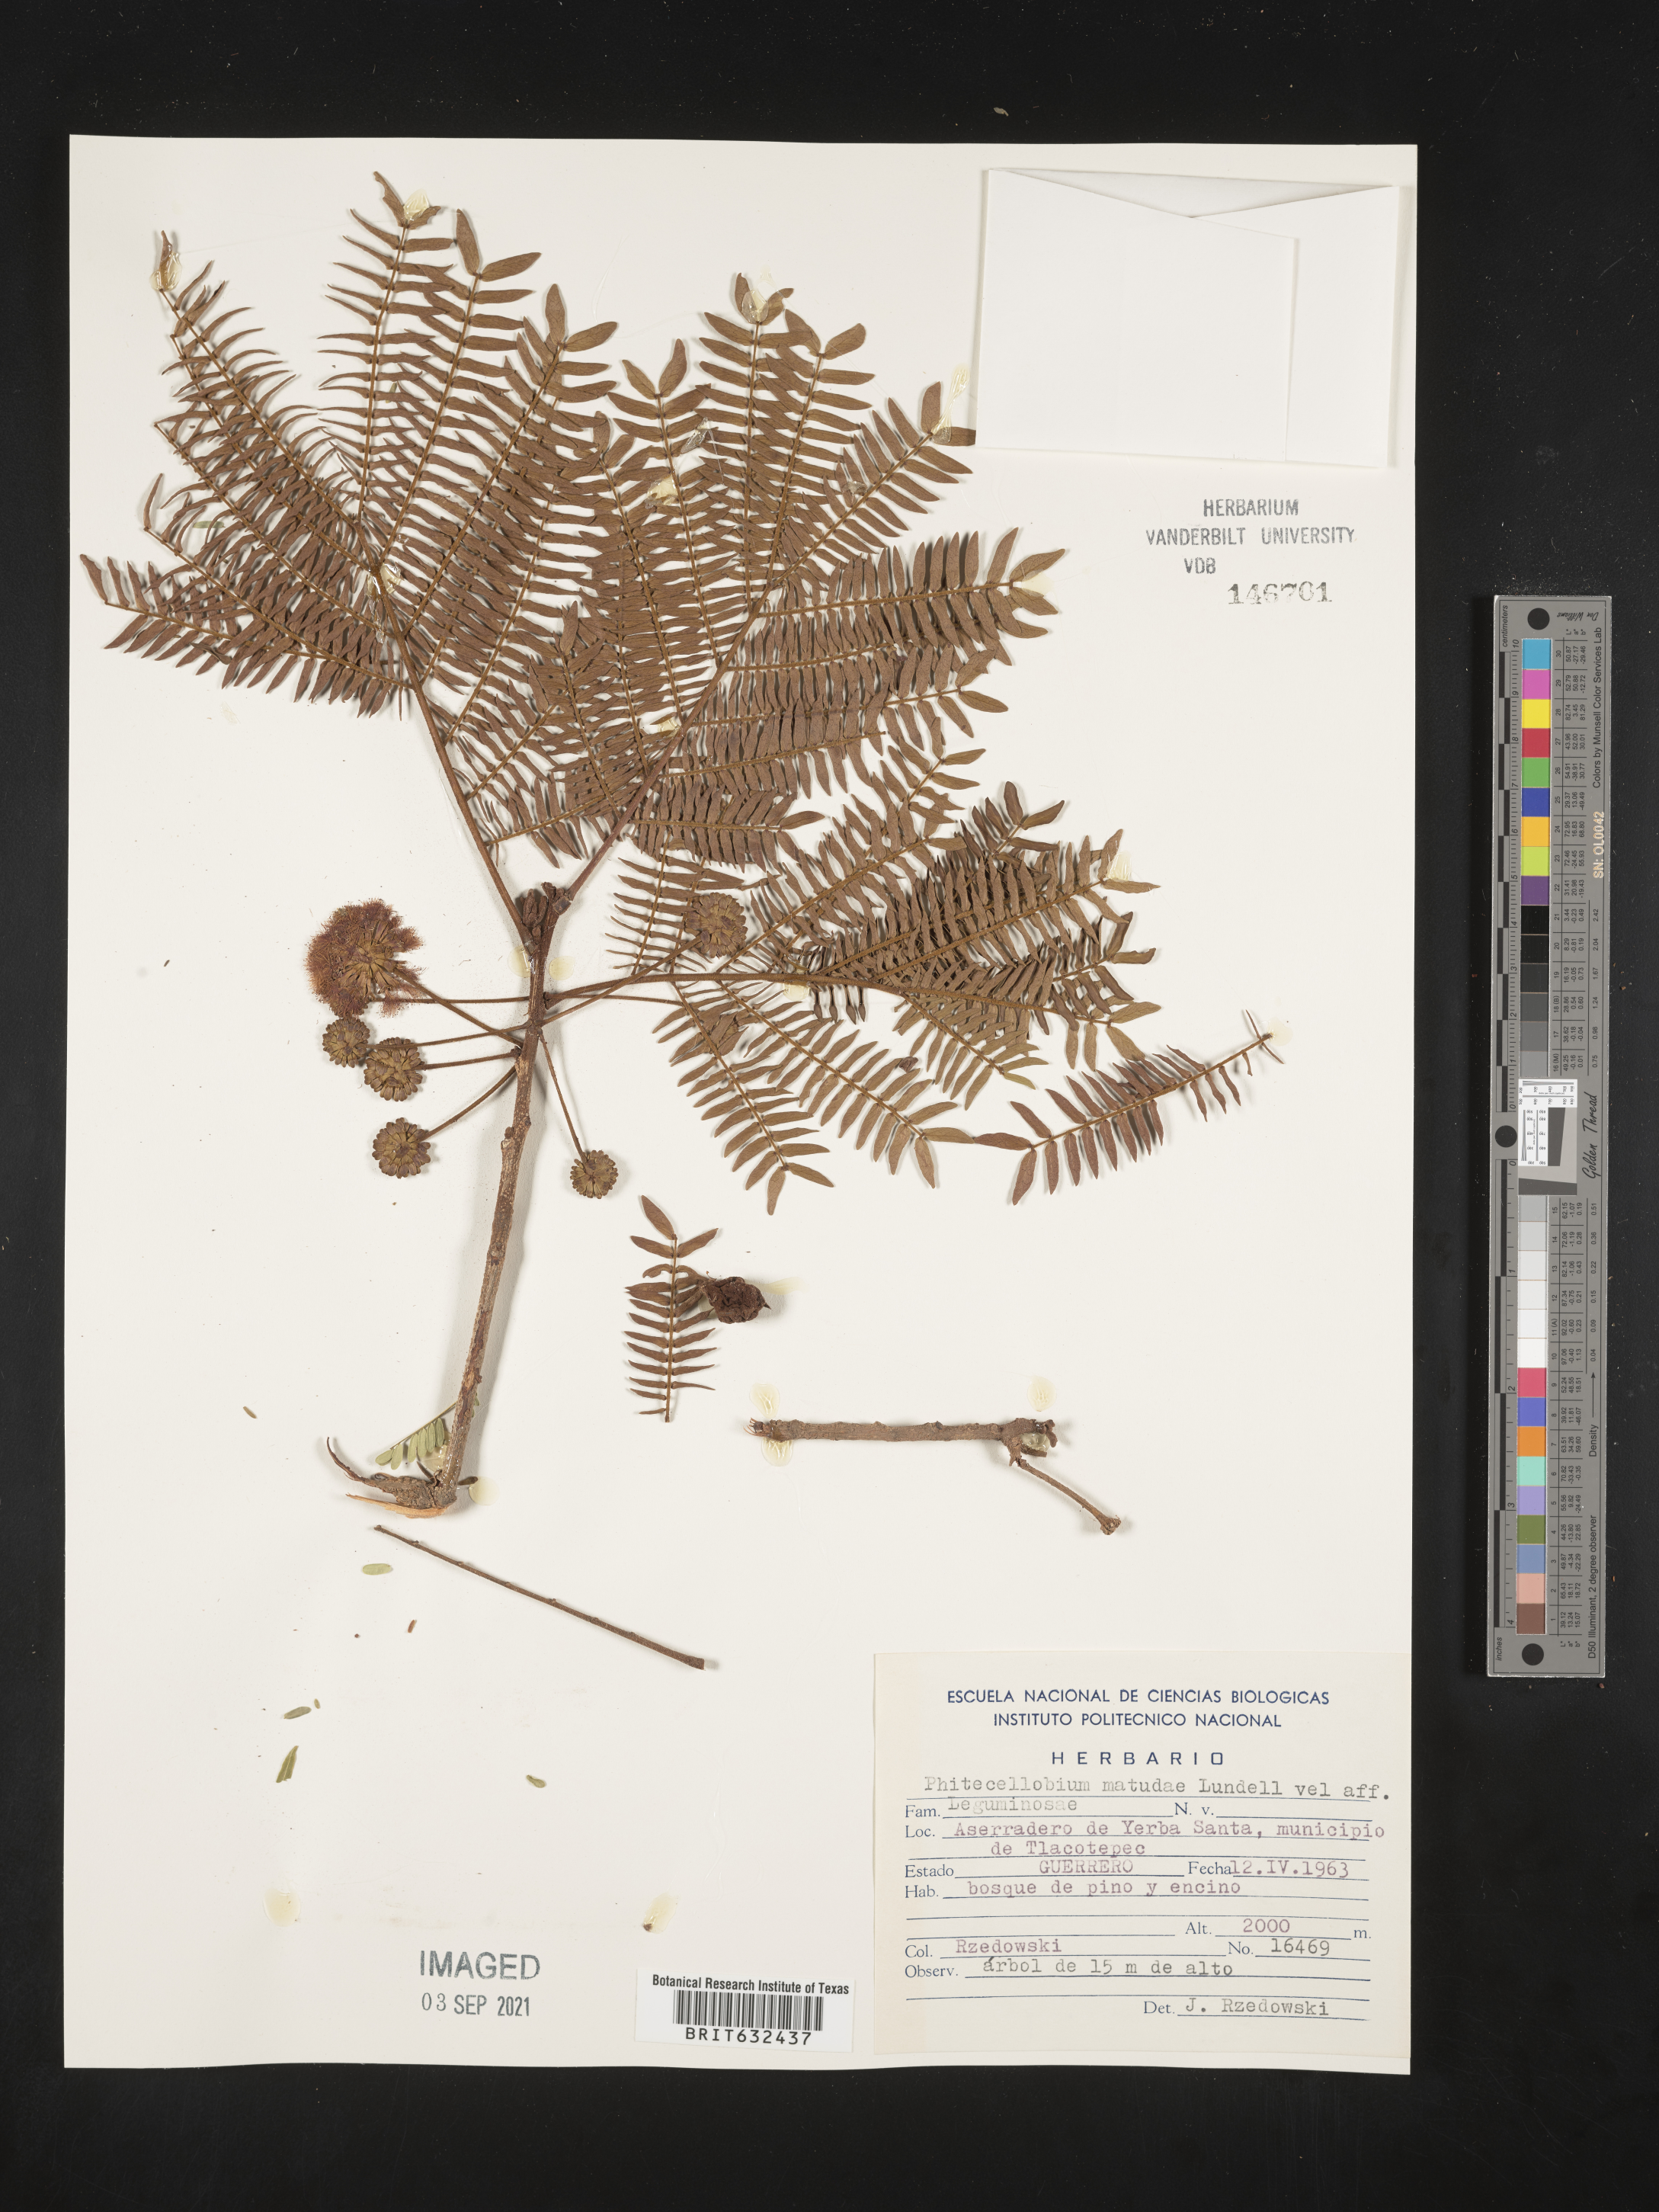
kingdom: Plantae
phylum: Tracheophyta
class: Magnoliopsida
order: Fabales
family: Fabaceae
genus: Pithecellobium
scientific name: Pithecellobium
